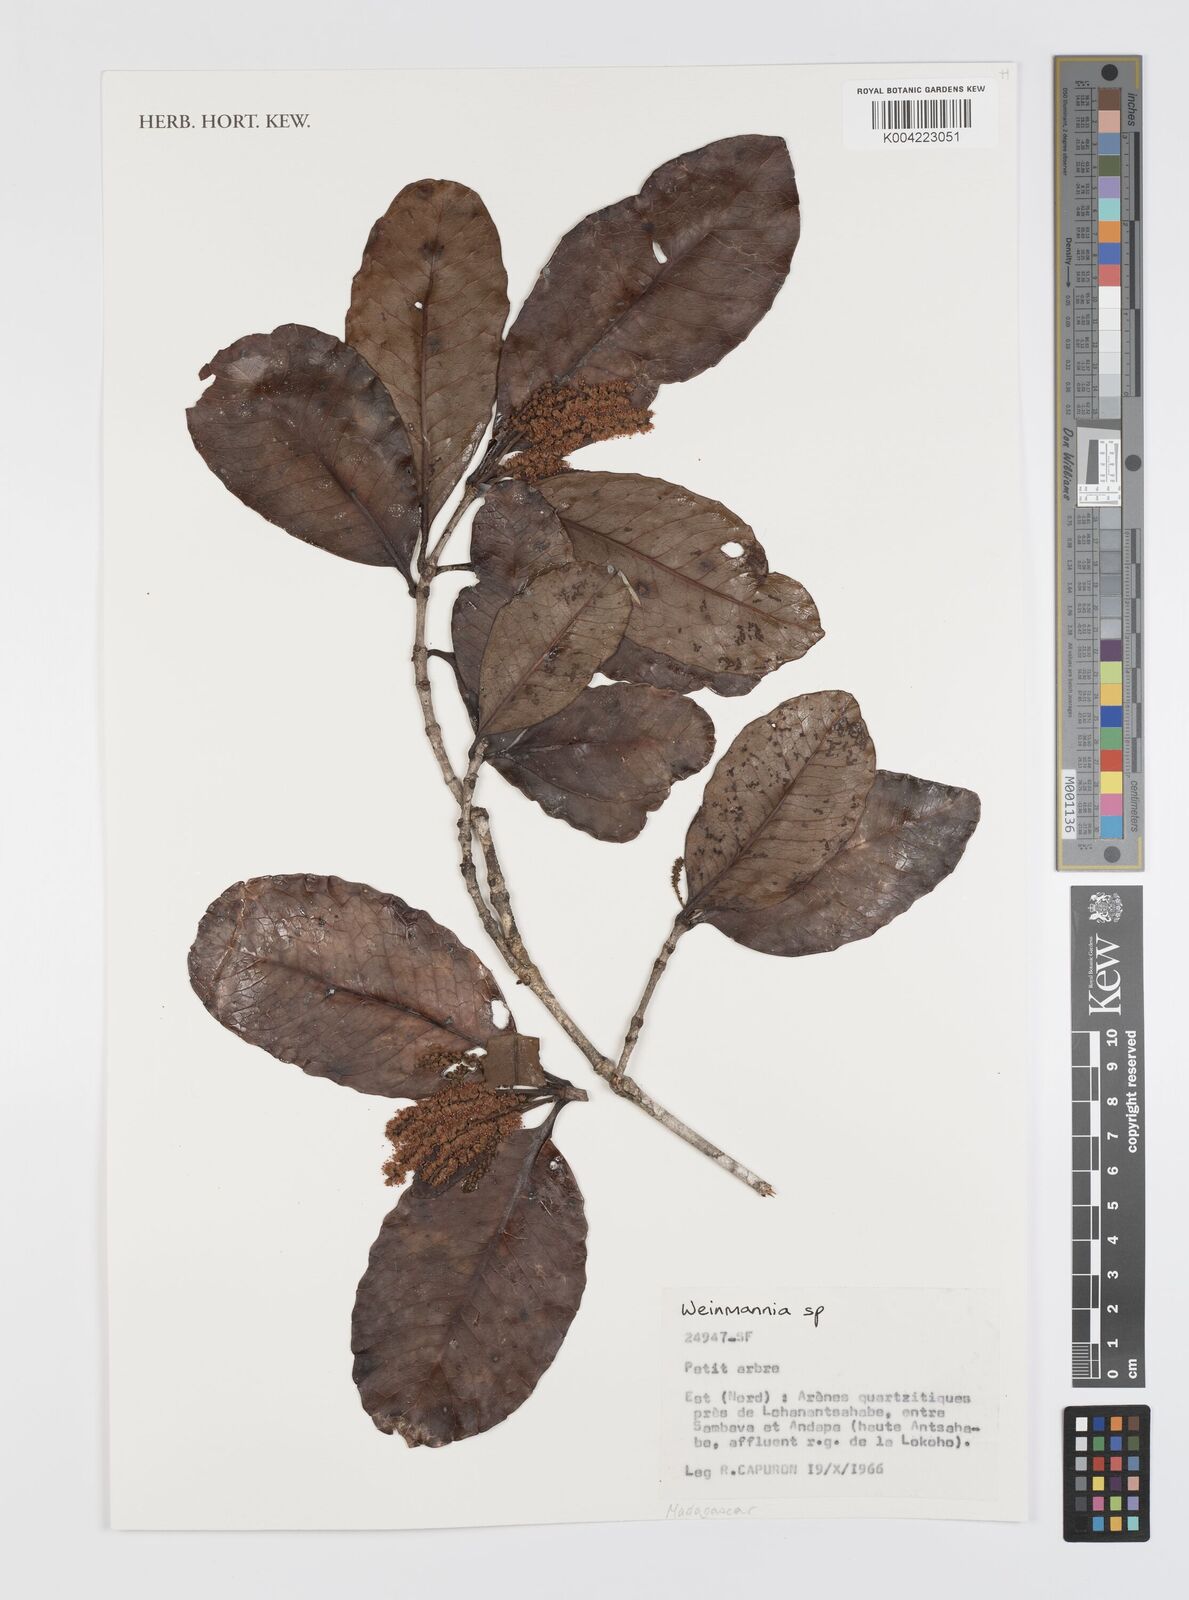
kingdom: Plantae
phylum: Tracheophyta
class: Magnoliopsida
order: Oxalidales
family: Cunoniaceae
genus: Weinmannia
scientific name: Weinmannia
